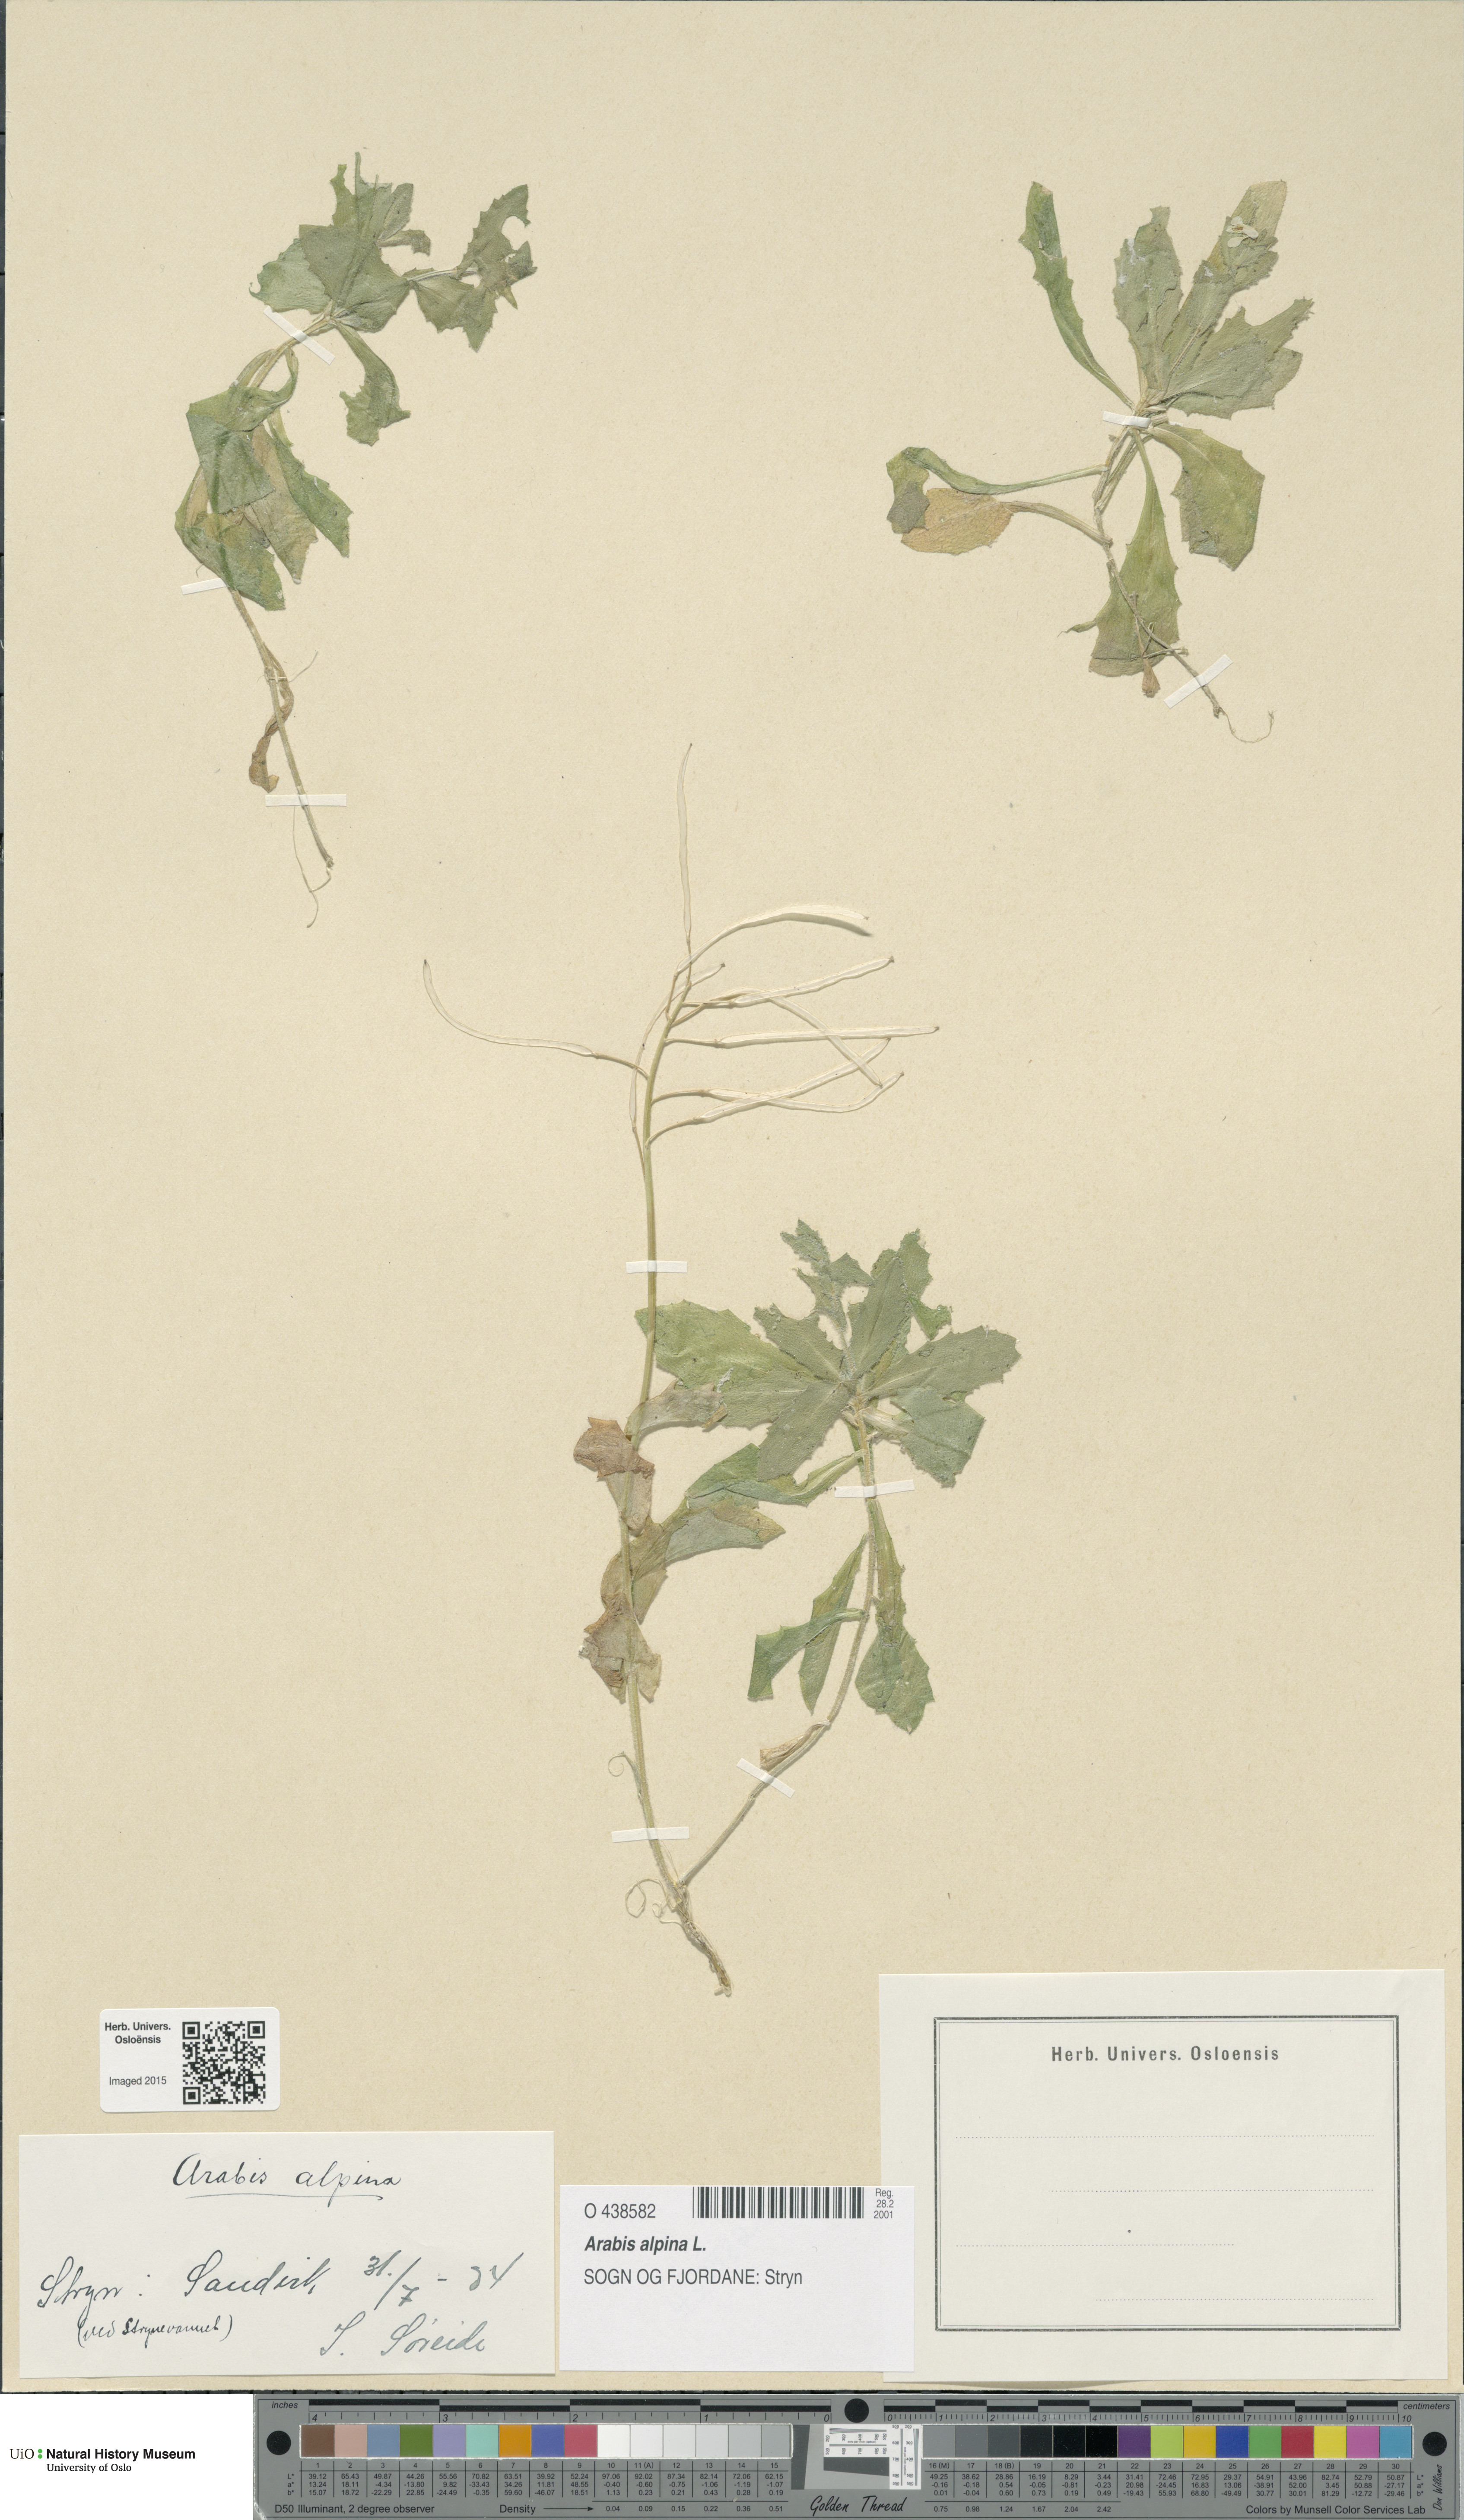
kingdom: Plantae
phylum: Tracheophyta
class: Magnoliopsida
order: Brassicales
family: Brassicaceae
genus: Arabis
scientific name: Arabis alpina
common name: Alpine rock-cress
